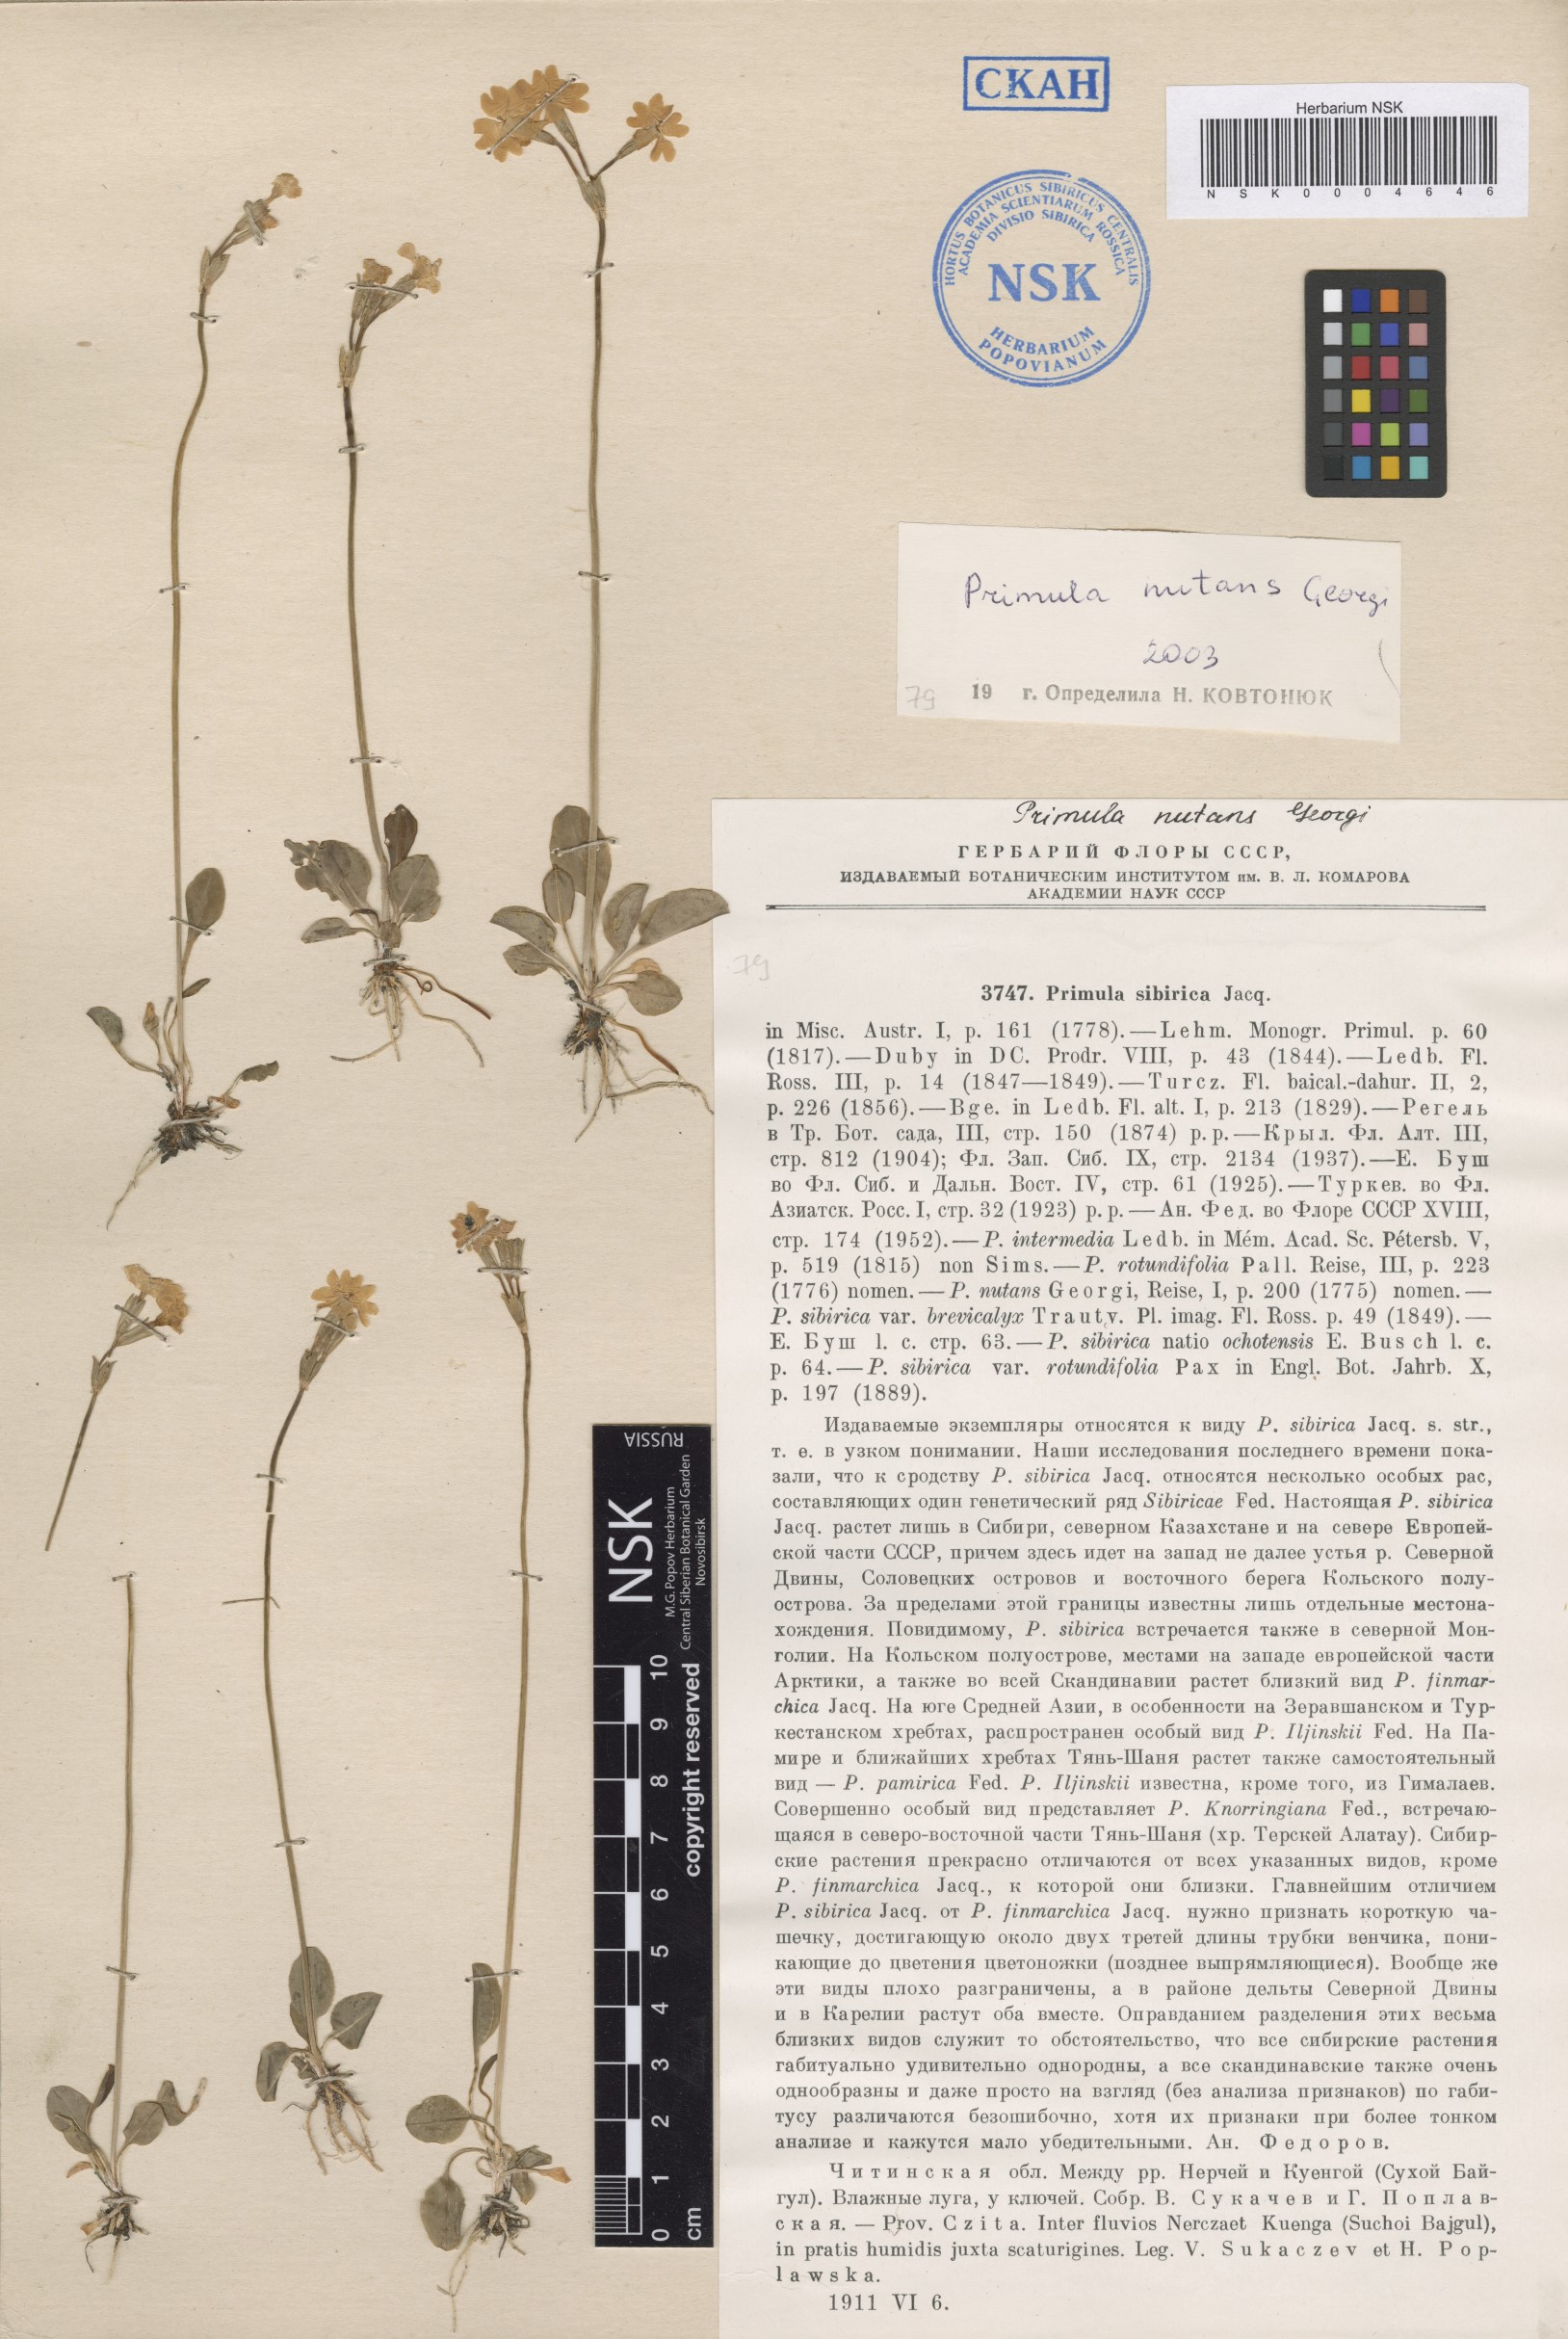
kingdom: Plantae
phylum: Tracheophyta
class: Magnoliopsida
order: Ericales
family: Primulaceae
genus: Primula
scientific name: Primula nutans
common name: Siberian primrose
